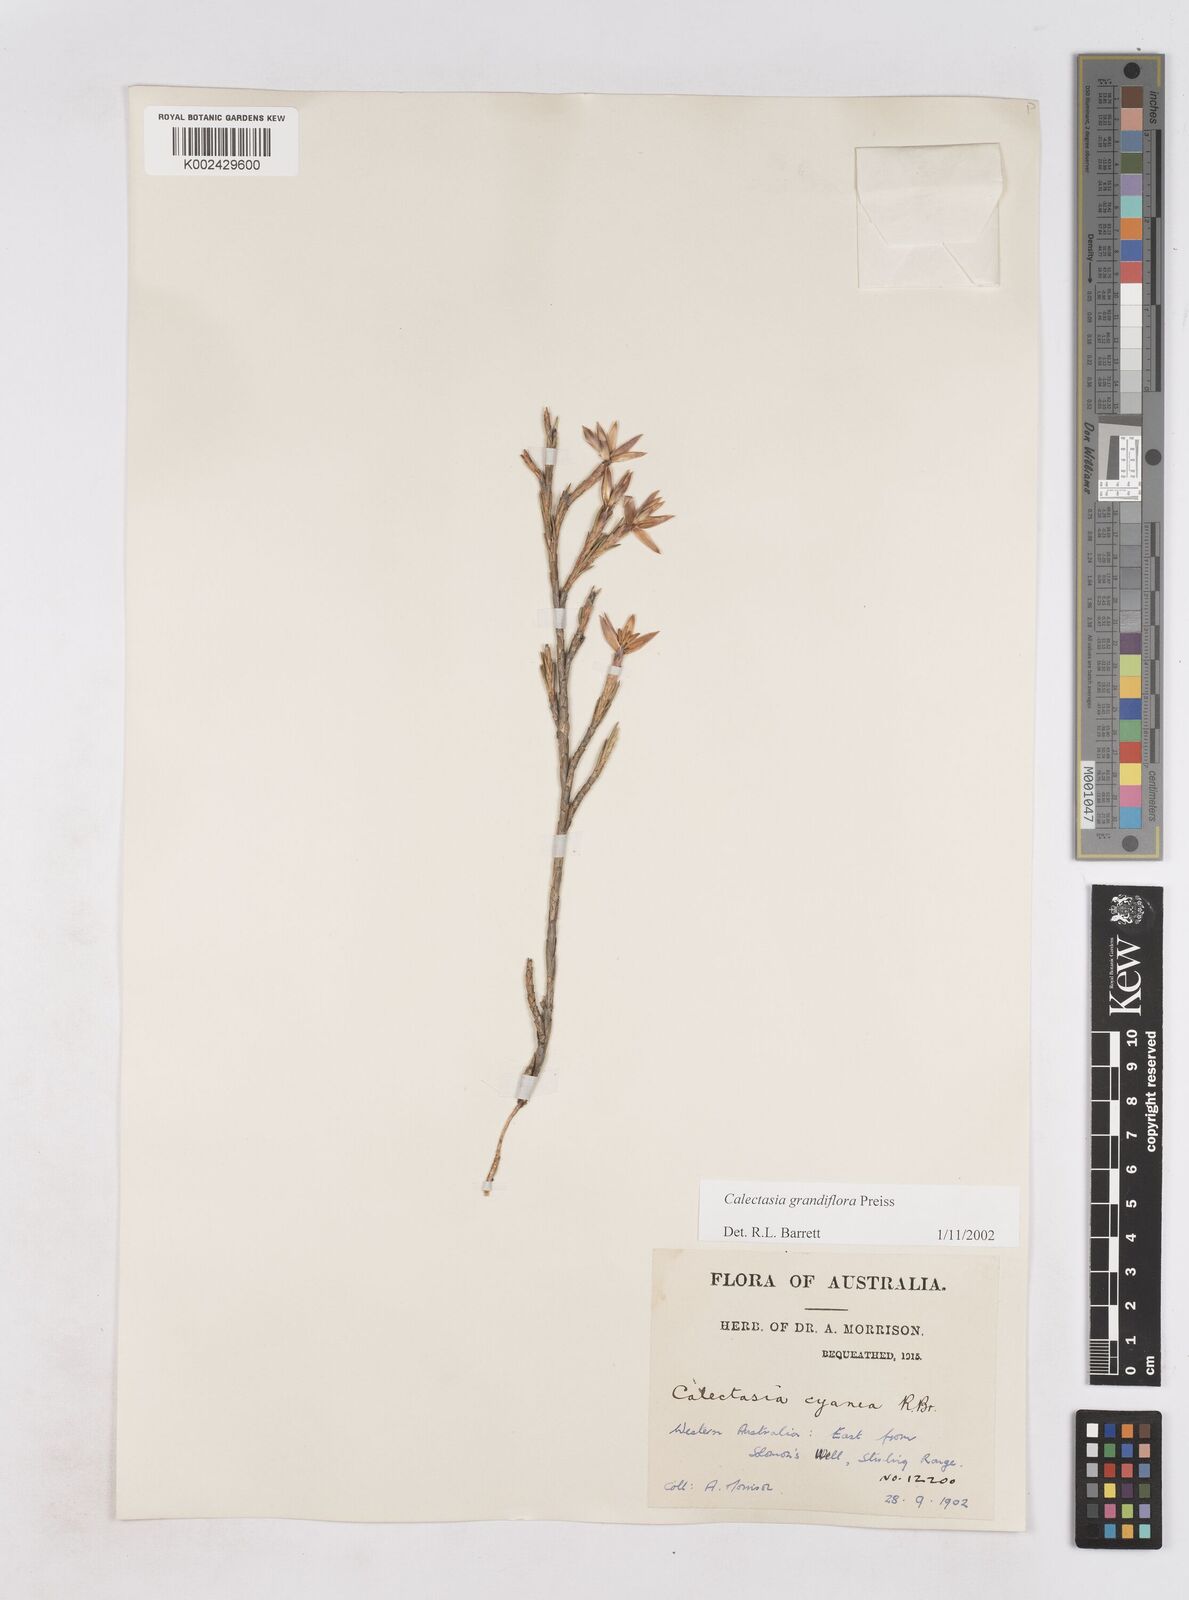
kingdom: Plantae
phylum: Tracheophyta
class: Liliopsida
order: Arecales
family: Dasypogonaceae
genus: Calectasia
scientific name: Calectasia grandiflora
